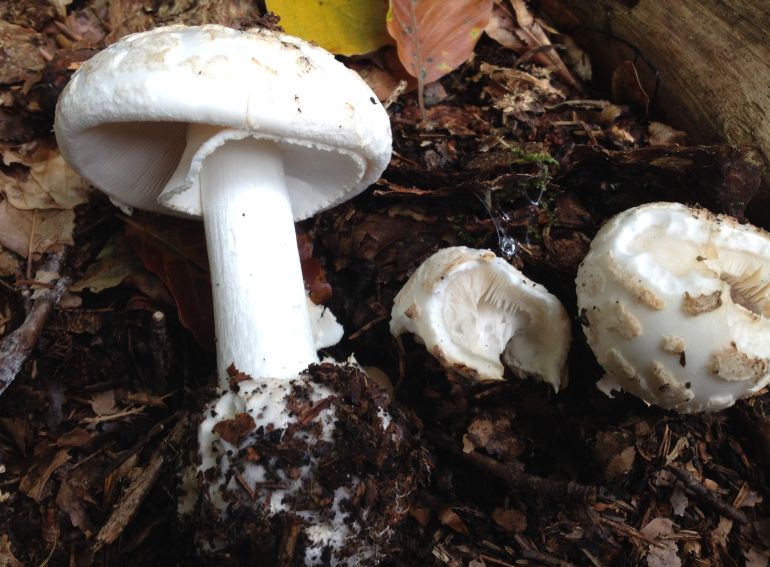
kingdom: Fungi
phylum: Basidiomycota
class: Agaricomycetes
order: Agaricales
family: Amanitaceae
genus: Amanita
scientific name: Amanita citrina
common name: False death-cap
